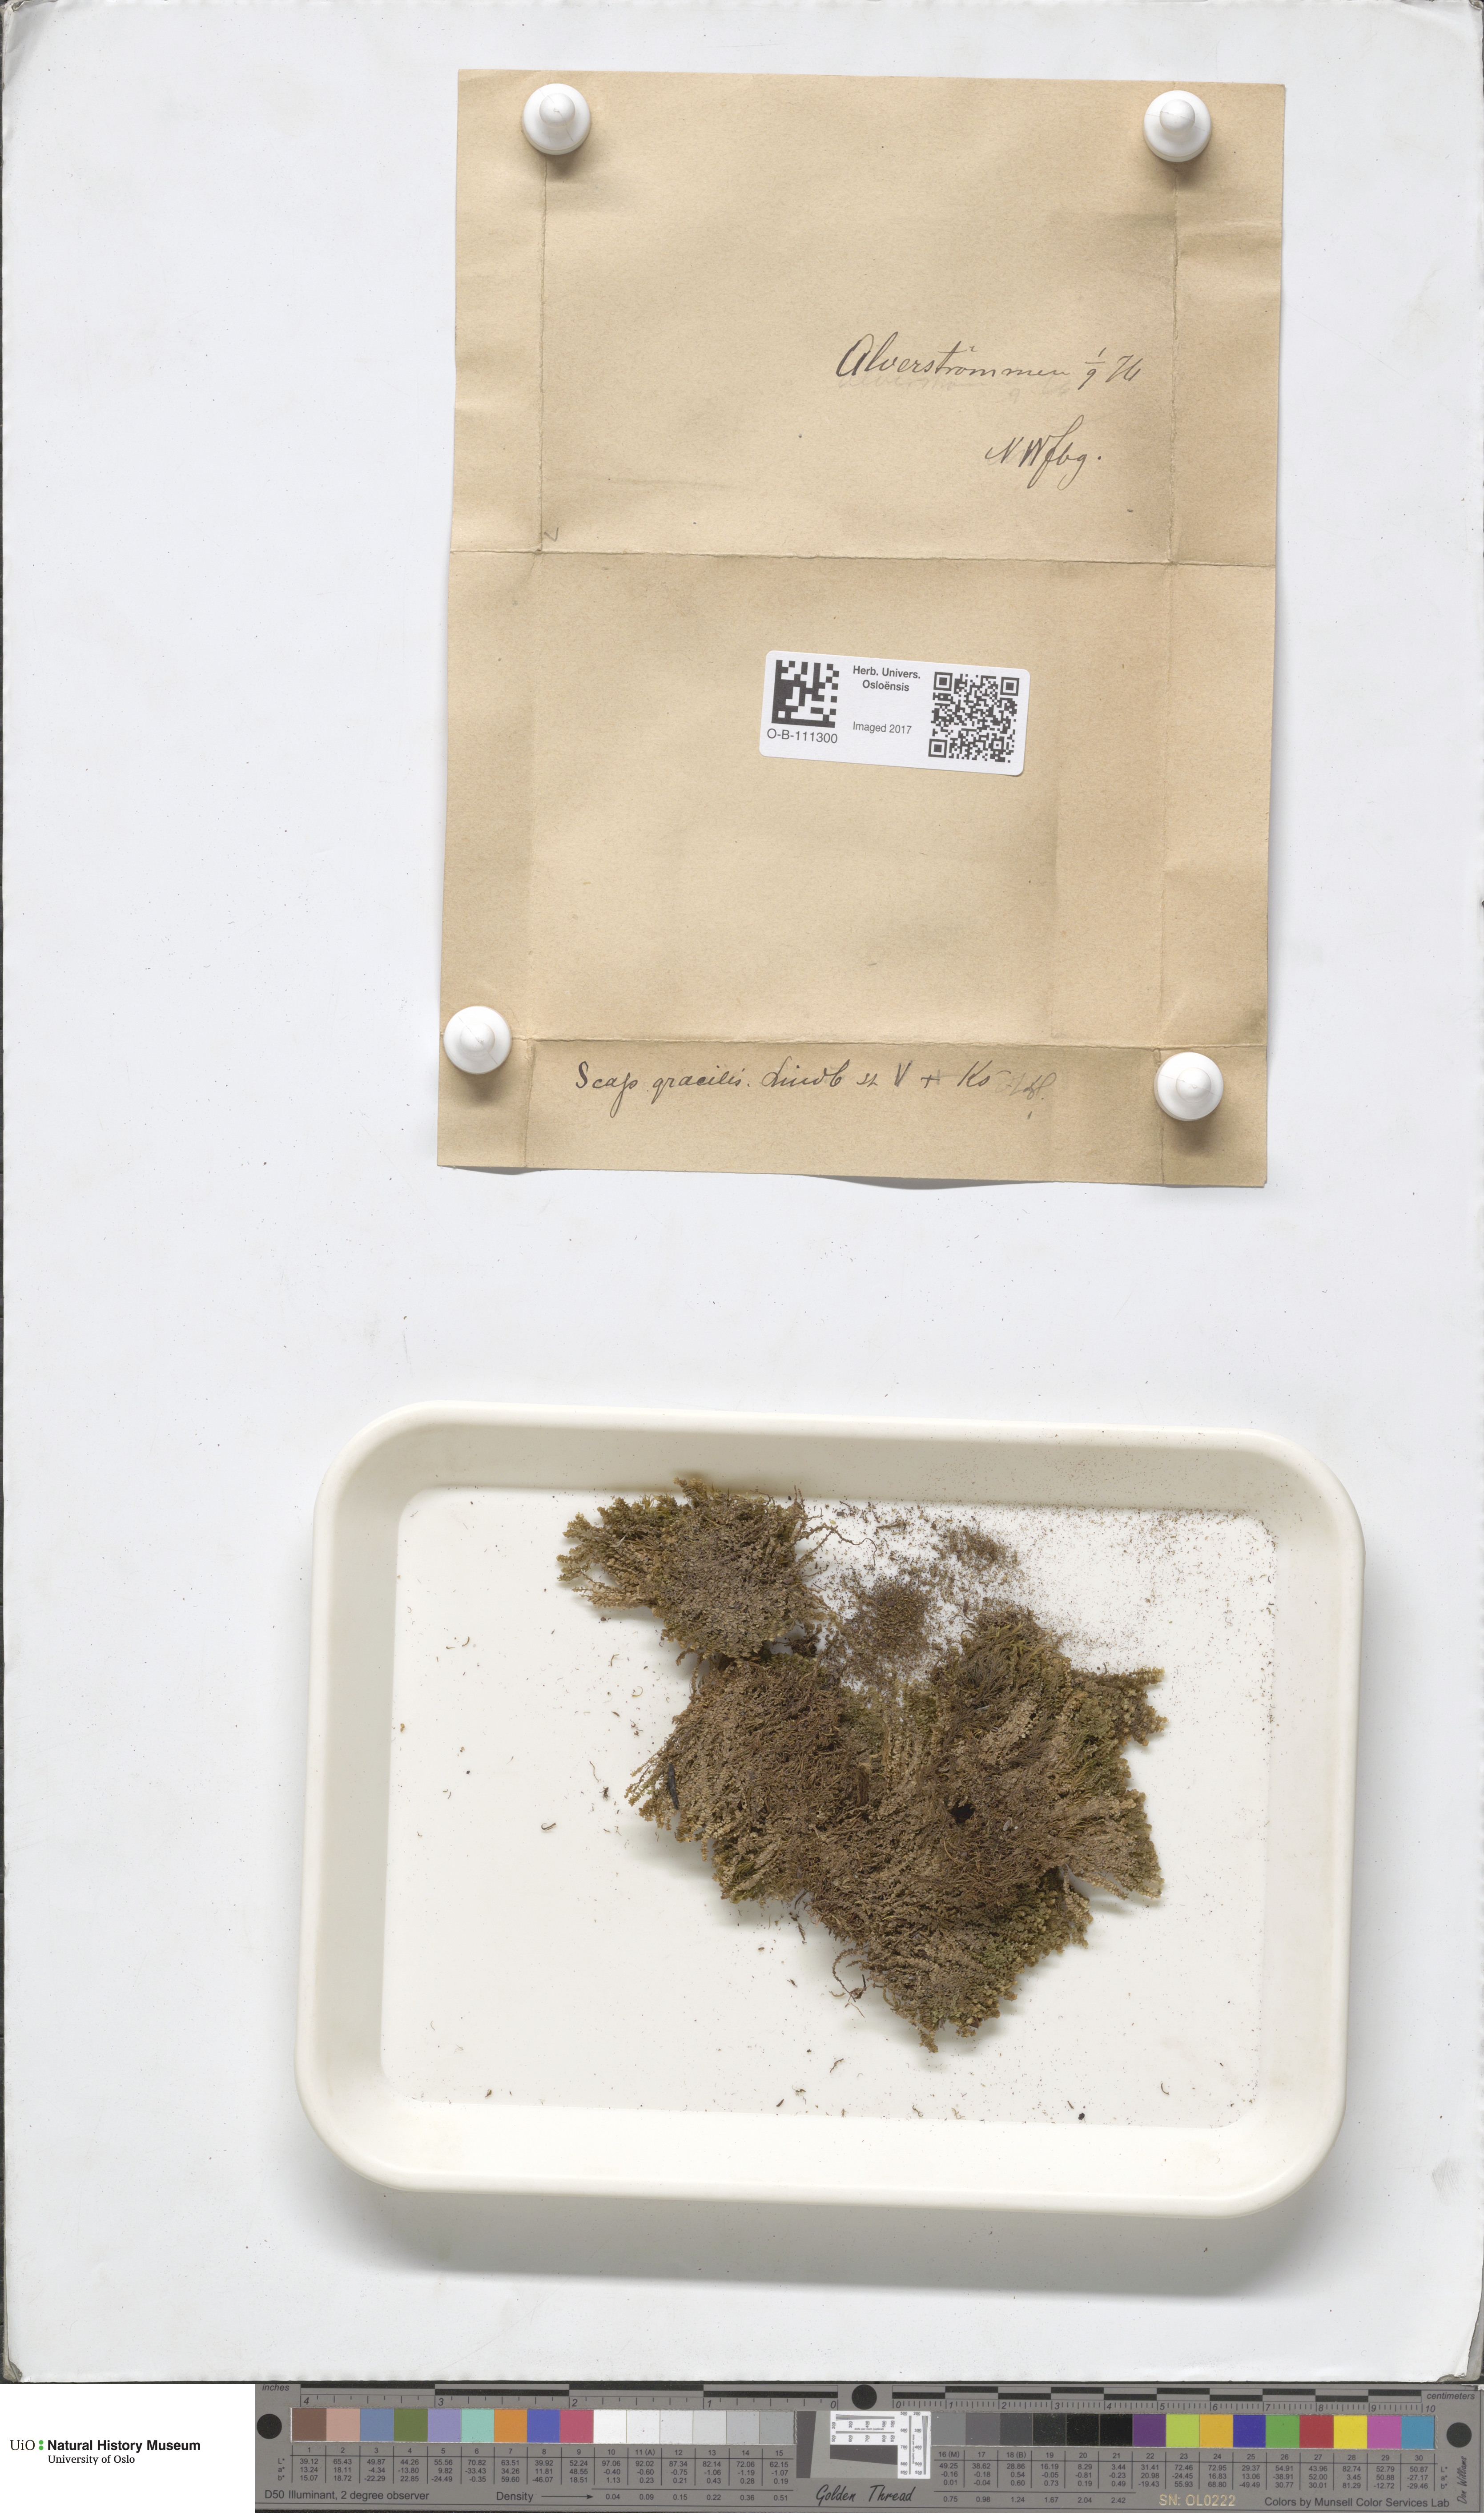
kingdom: Plantae
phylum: Marchantiophyta
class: Jungermanniopsida
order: Jungermanniales
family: Scapaniaceae
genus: Scapania
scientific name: Scapania gracilis
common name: Western earwort
